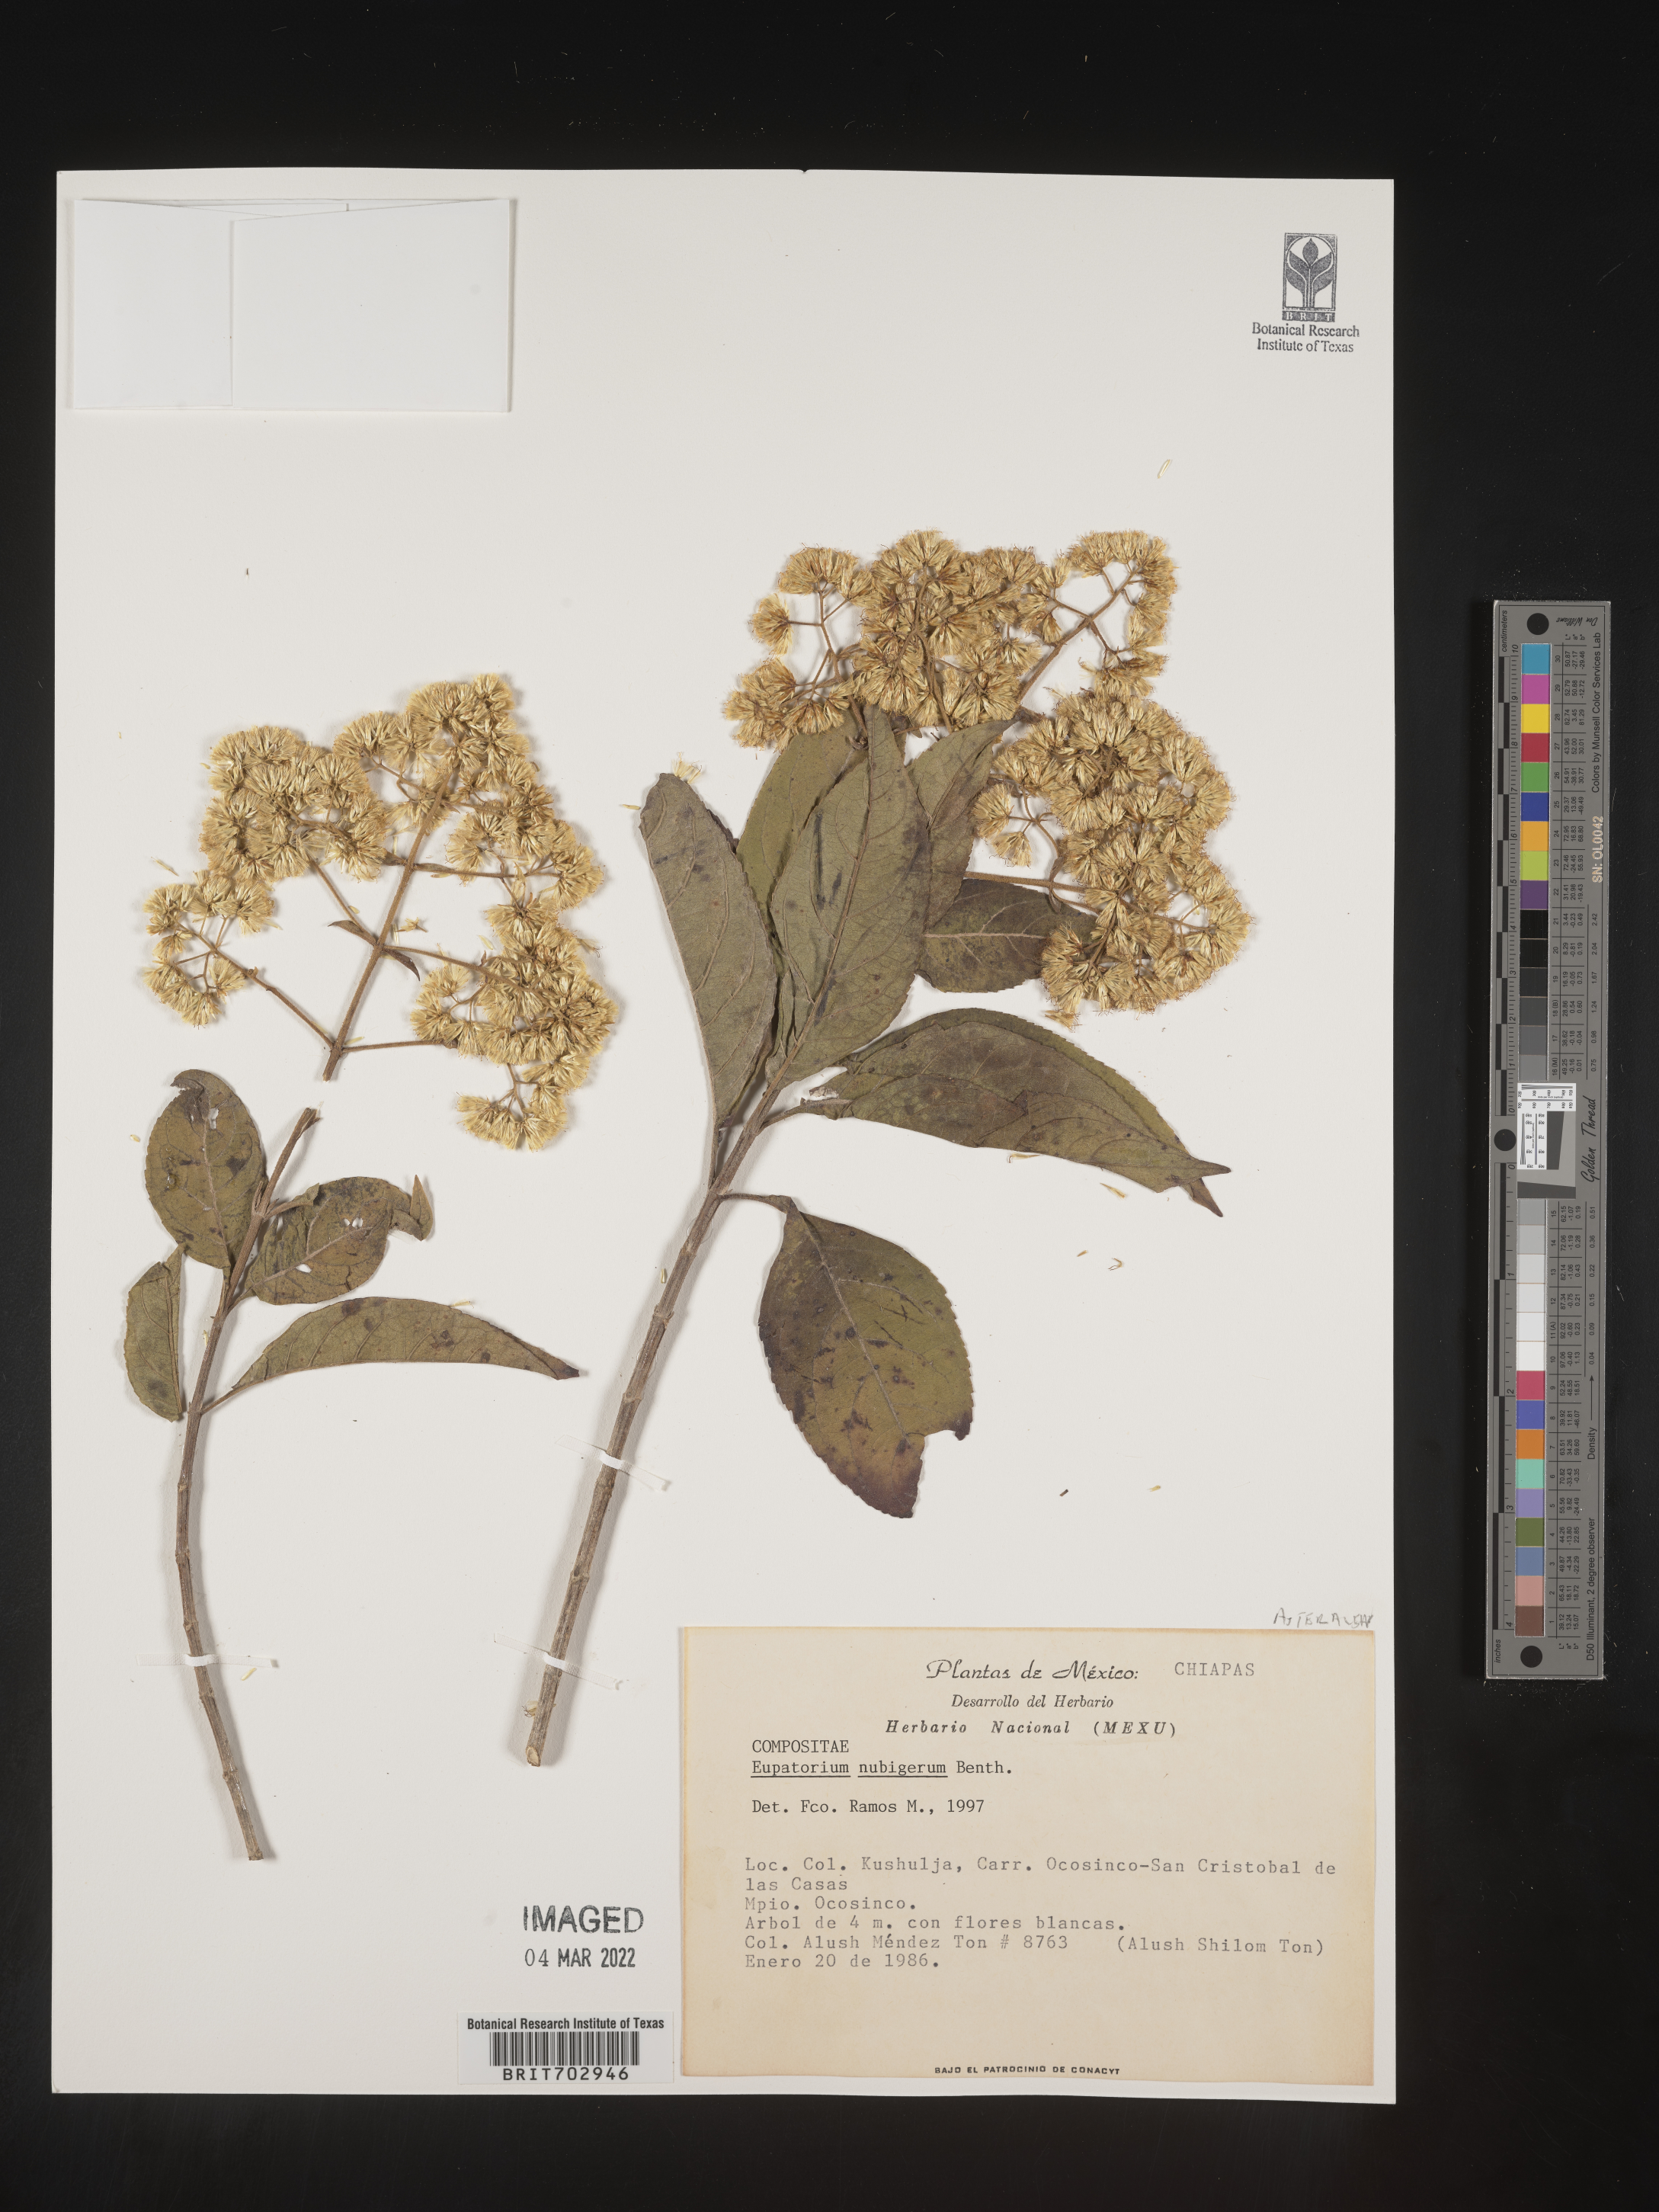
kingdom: Plantae
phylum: Tracheophyta
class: Magnoliopsida
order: Asterales
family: Asteraceae
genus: Eupatorium
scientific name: Eupatorium
